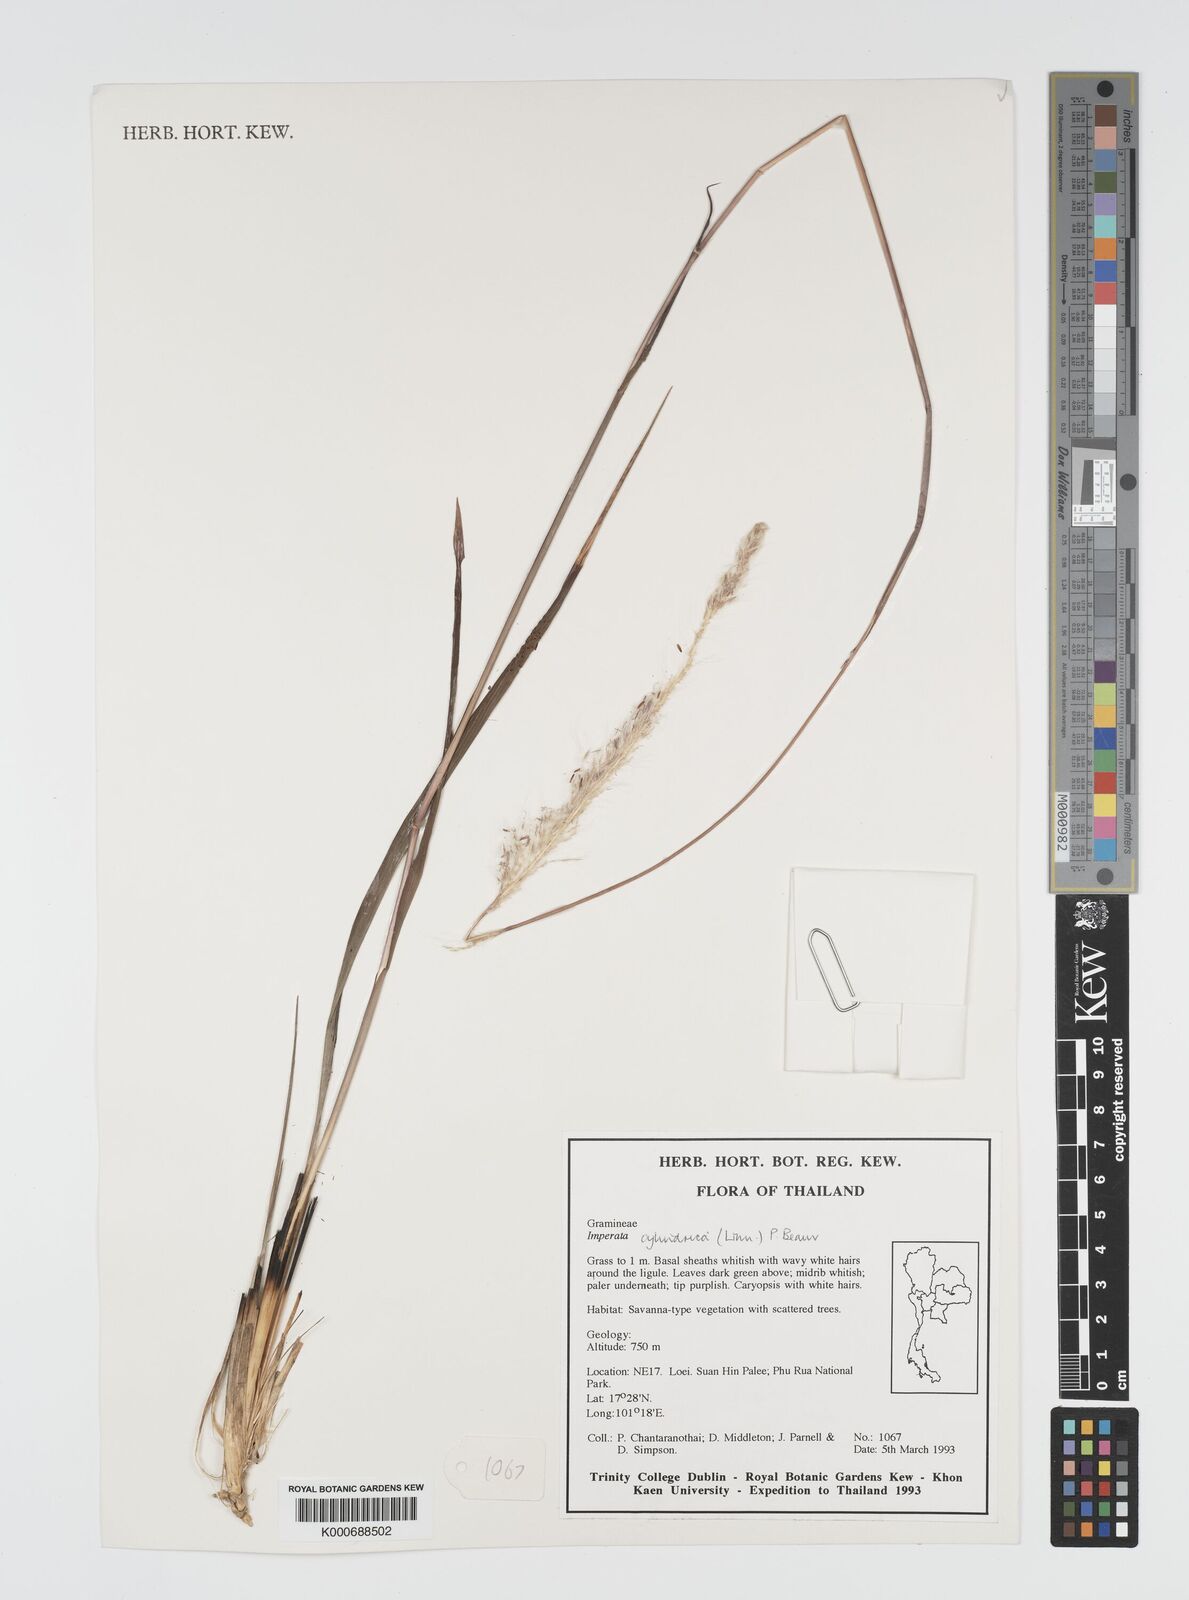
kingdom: Plantae
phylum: Tracheophyta
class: Liliopsida
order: Poales
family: Poaceae
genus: Imperata
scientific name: Imperata cylindrica
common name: Cogongrass
